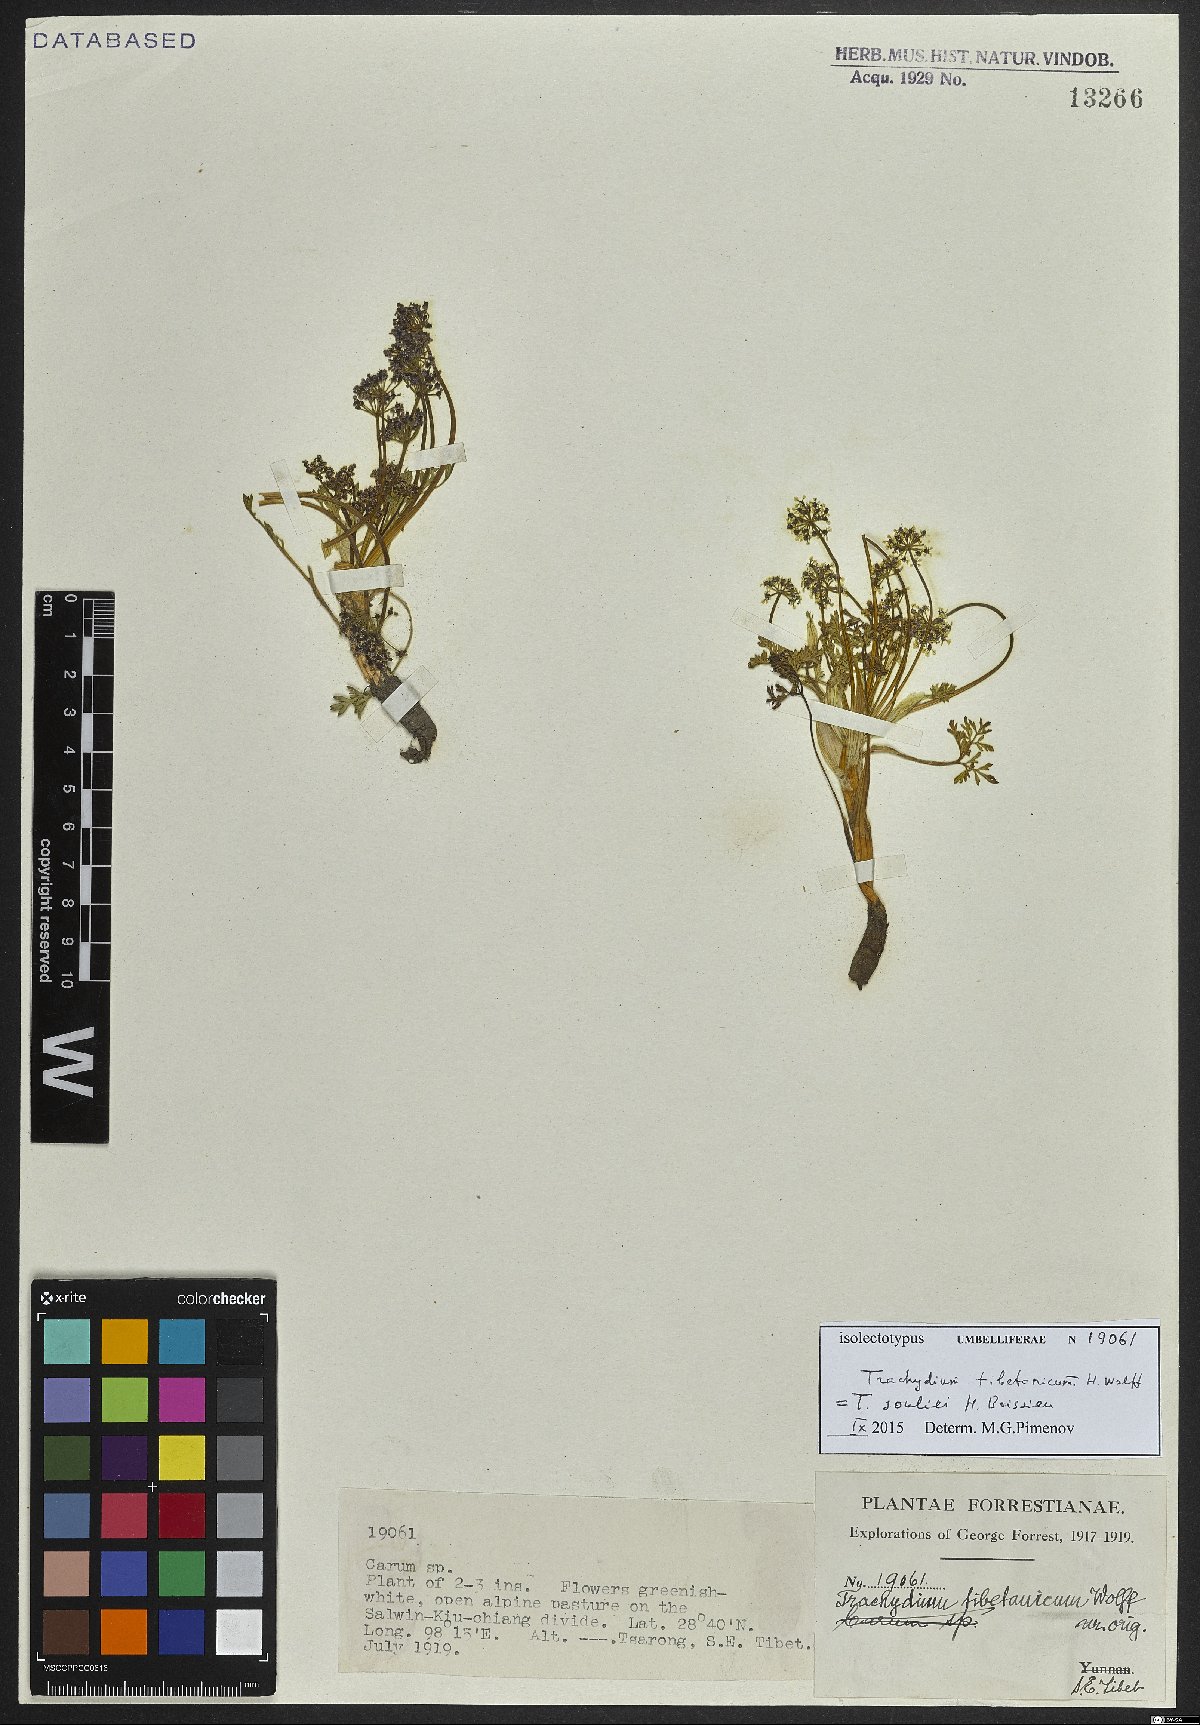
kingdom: Plantae
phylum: Tracheophyta
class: Magnoliopsida
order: Apiales
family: Apiaceae
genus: Trachydium
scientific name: Trachydium souliei
